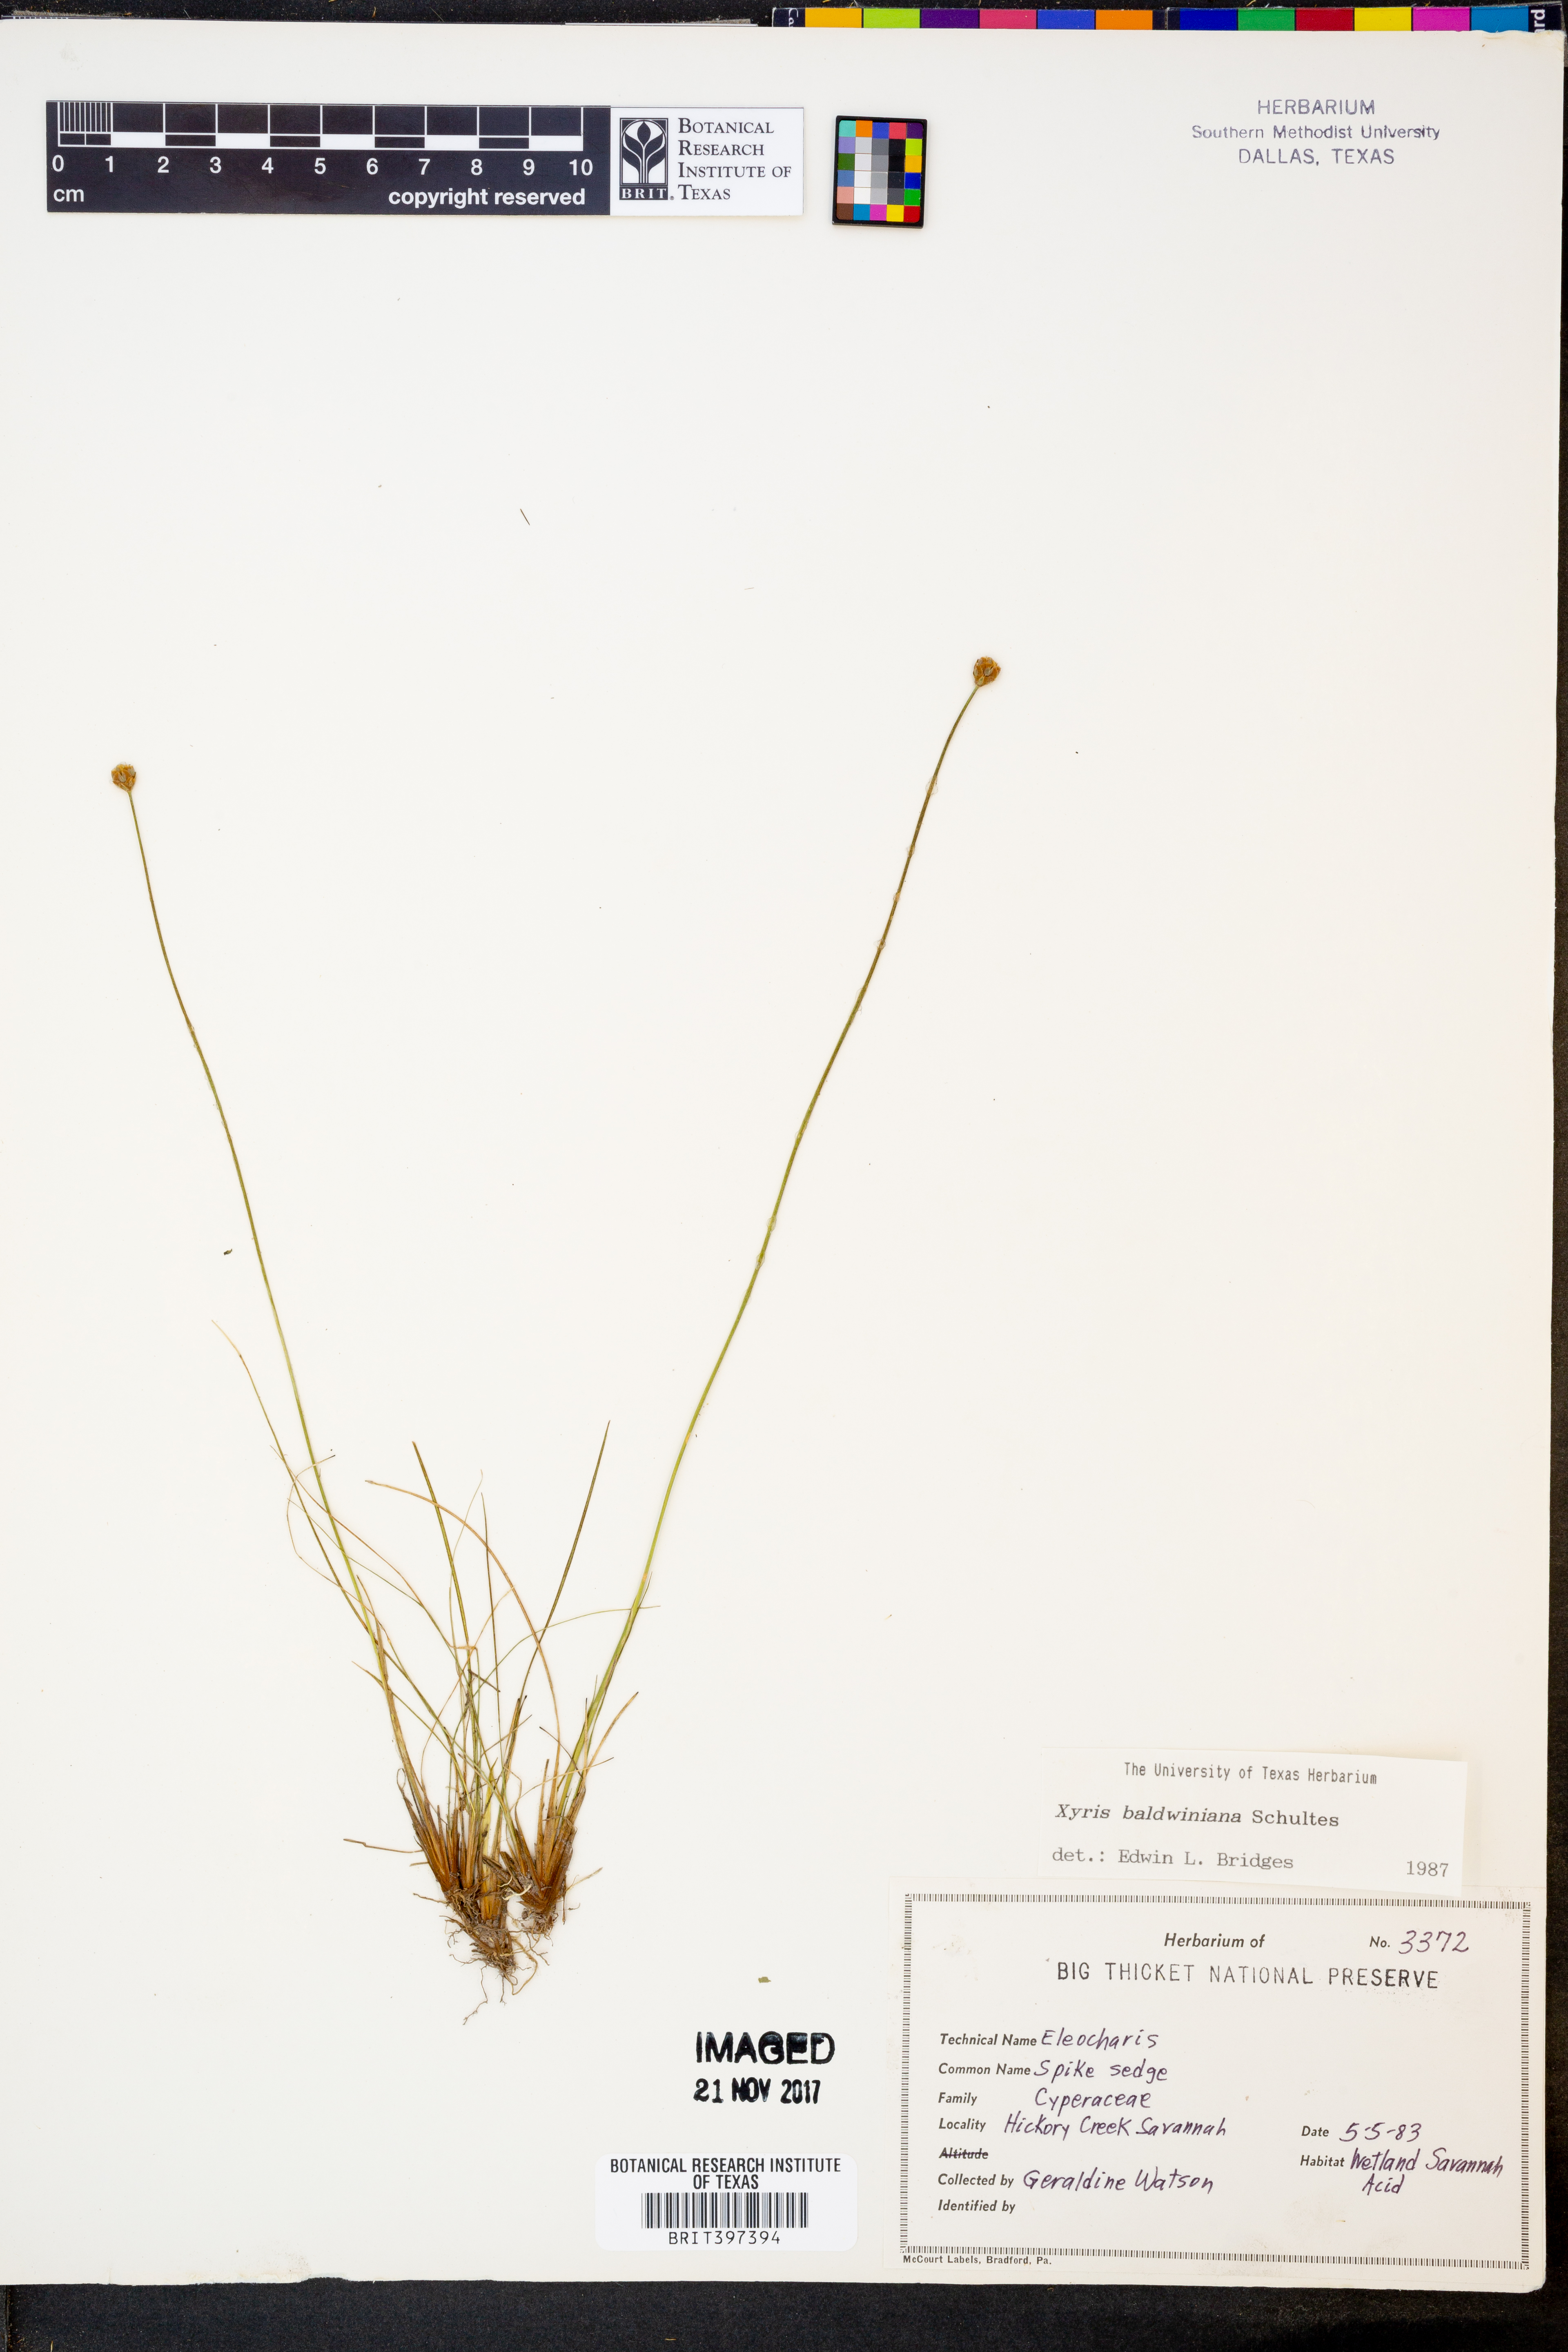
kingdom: Plantae
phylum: Tracheophyta
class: Liliopsida
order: Poales
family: Xyridaceae
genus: Xyris
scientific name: Xyris baldwiniana
